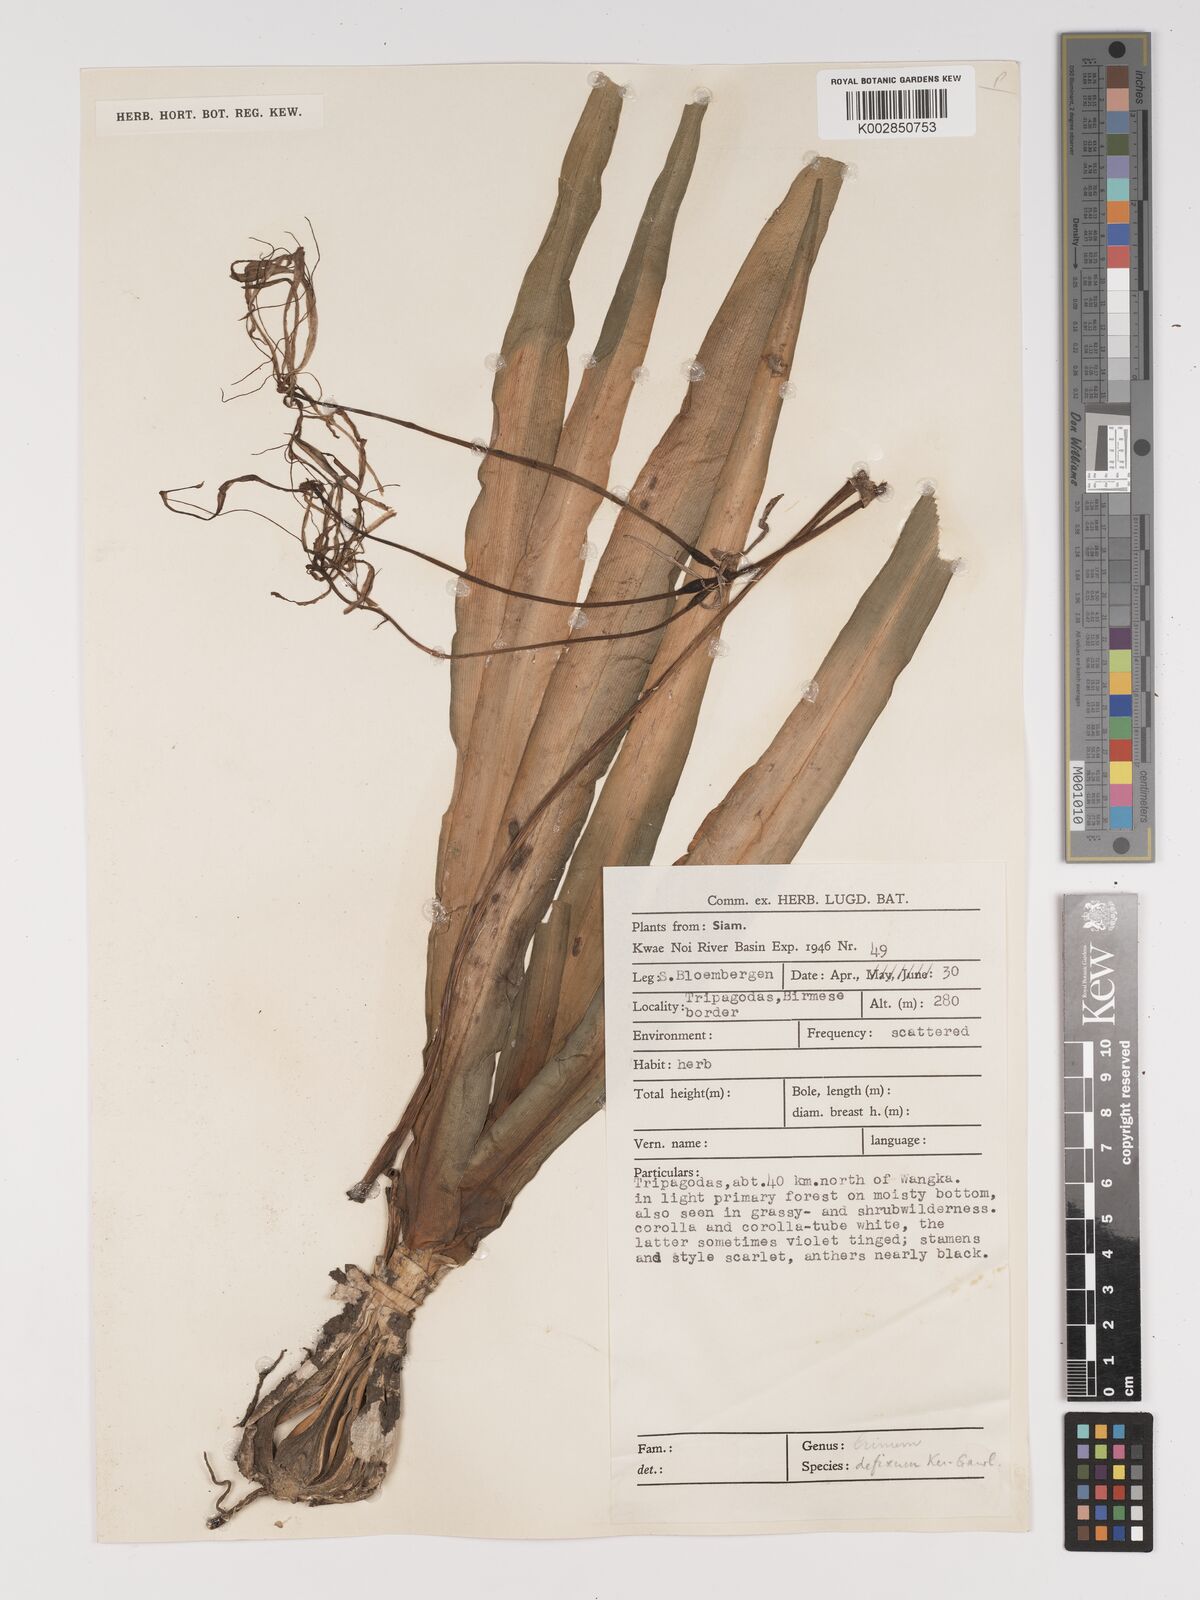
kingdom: Plantae
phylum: Tracheophyta
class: Liliopsida
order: Asparagales
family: Amaryllidaceae
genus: Crinum
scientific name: Crinum defixum
